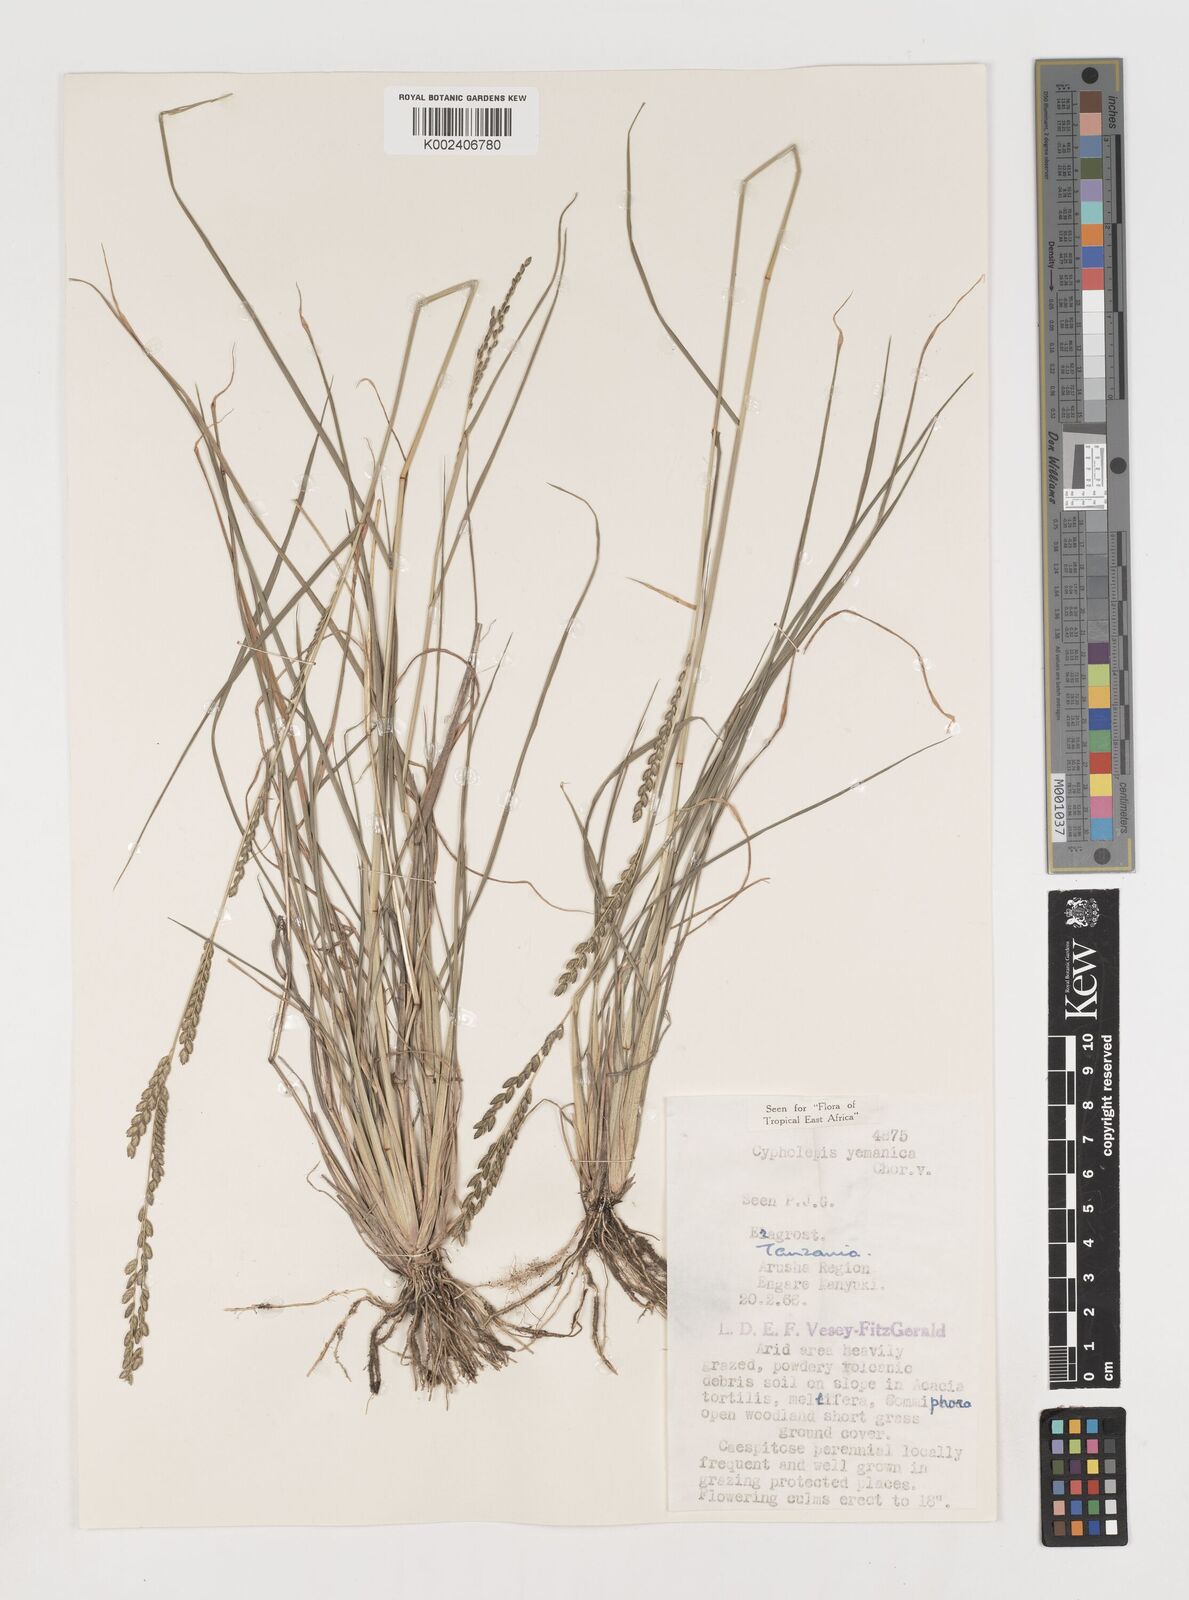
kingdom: Plantae
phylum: Tracheophyta
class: Liliopsida
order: Poales
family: Poaceae
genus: Disakisperma
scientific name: Disakisperma yemenicum
